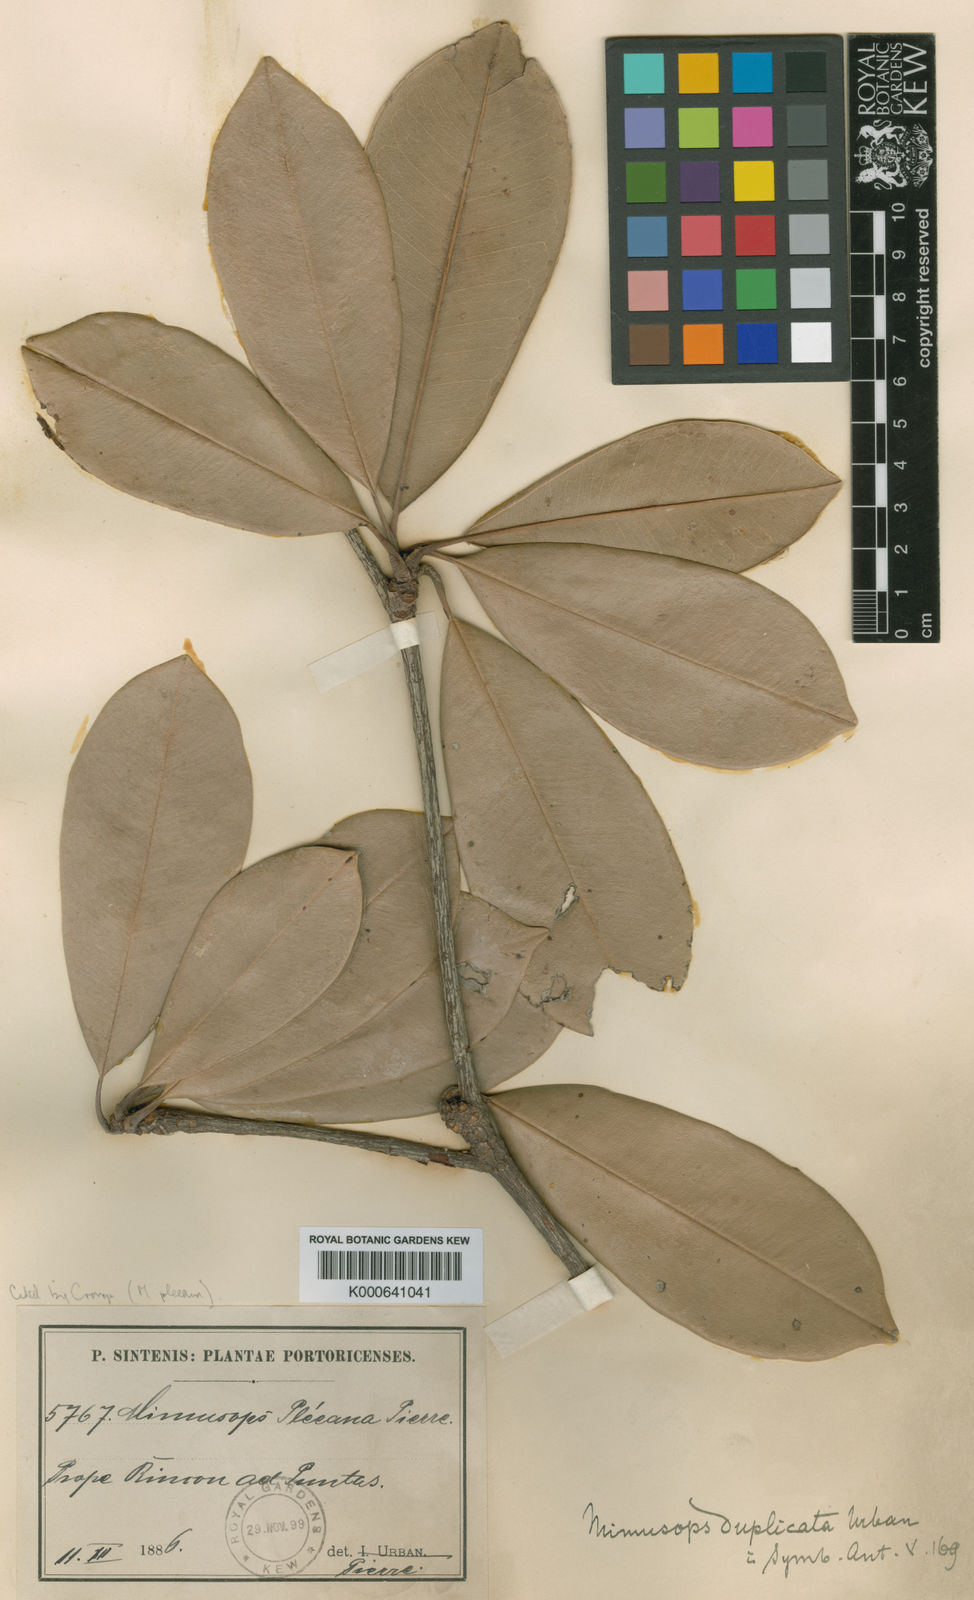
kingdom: Plantae
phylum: Tracheophyta
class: Magnoliopsida
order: Ericales
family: Sapotaceae
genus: Manilkara
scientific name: Manilkara pleeana
